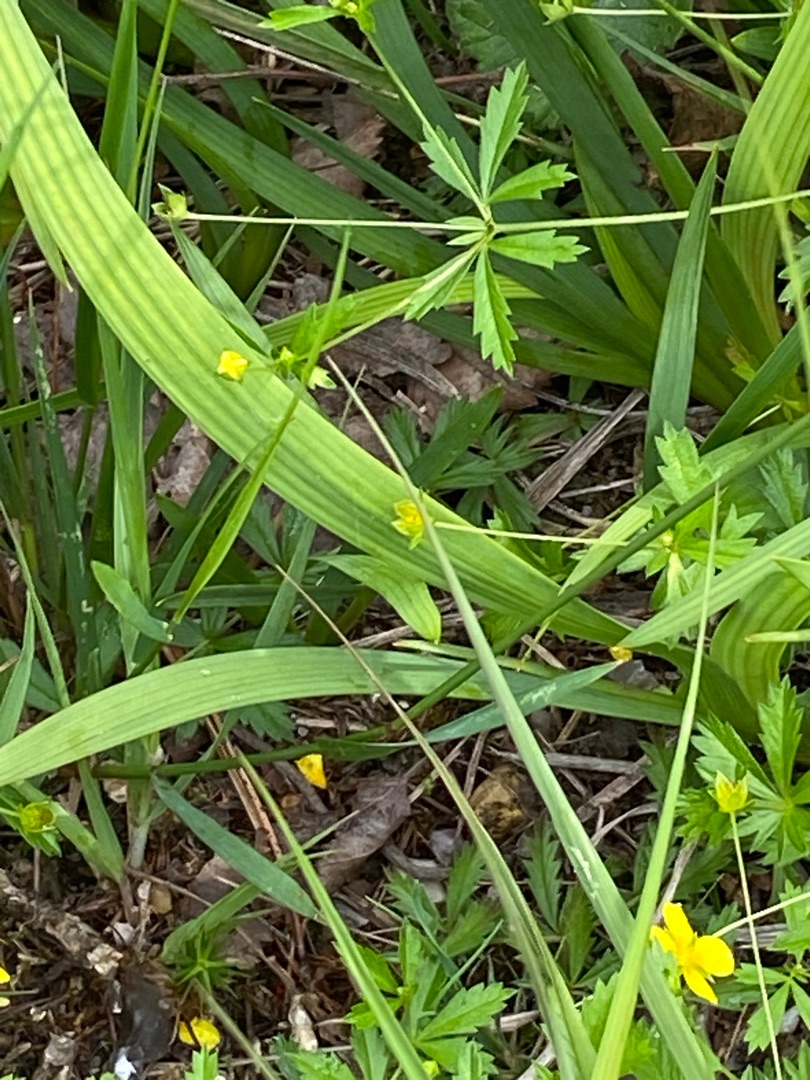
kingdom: Plantae
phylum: Tracheophyta
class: Liliopsida
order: Dioscoreales
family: Nartheciaceae
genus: Narthecium
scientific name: Narthecium ossifragum
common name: Benbræk
